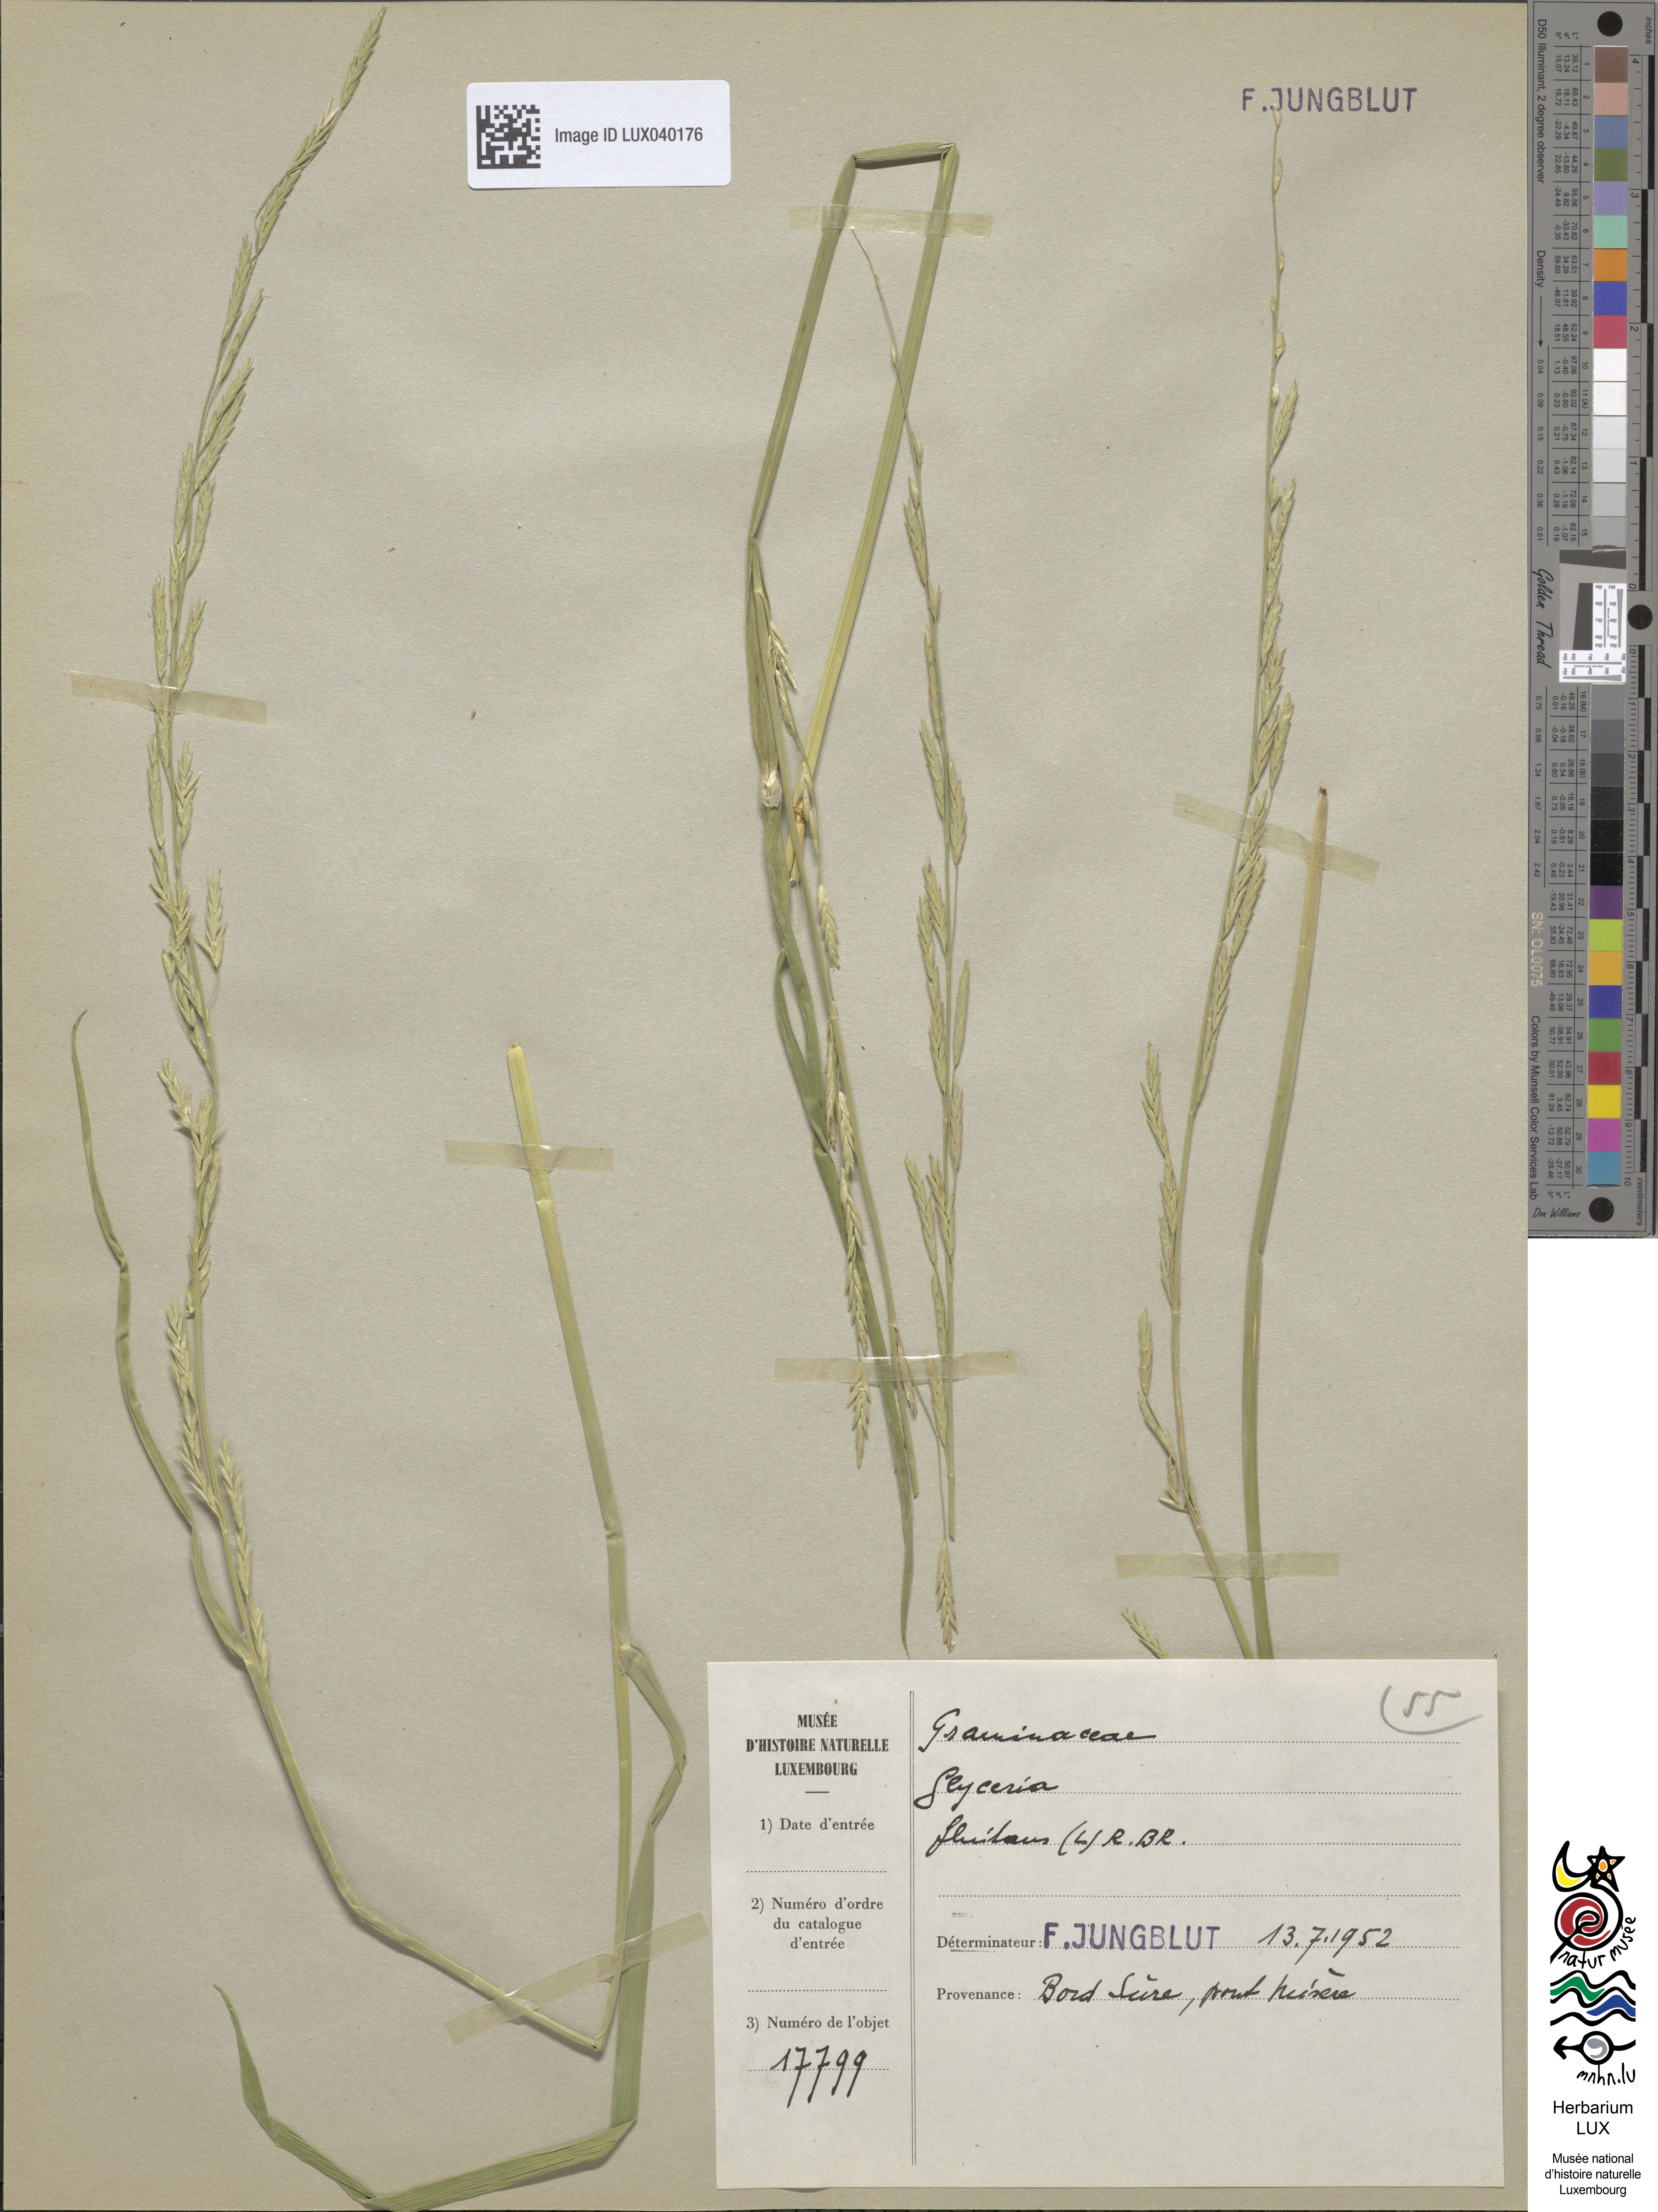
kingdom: Plantae
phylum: Tracheophyta
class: Liliopsida
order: Poales
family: Poaceae
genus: Glyceria
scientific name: Glyceria fluitans
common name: Floating sweet-grass
